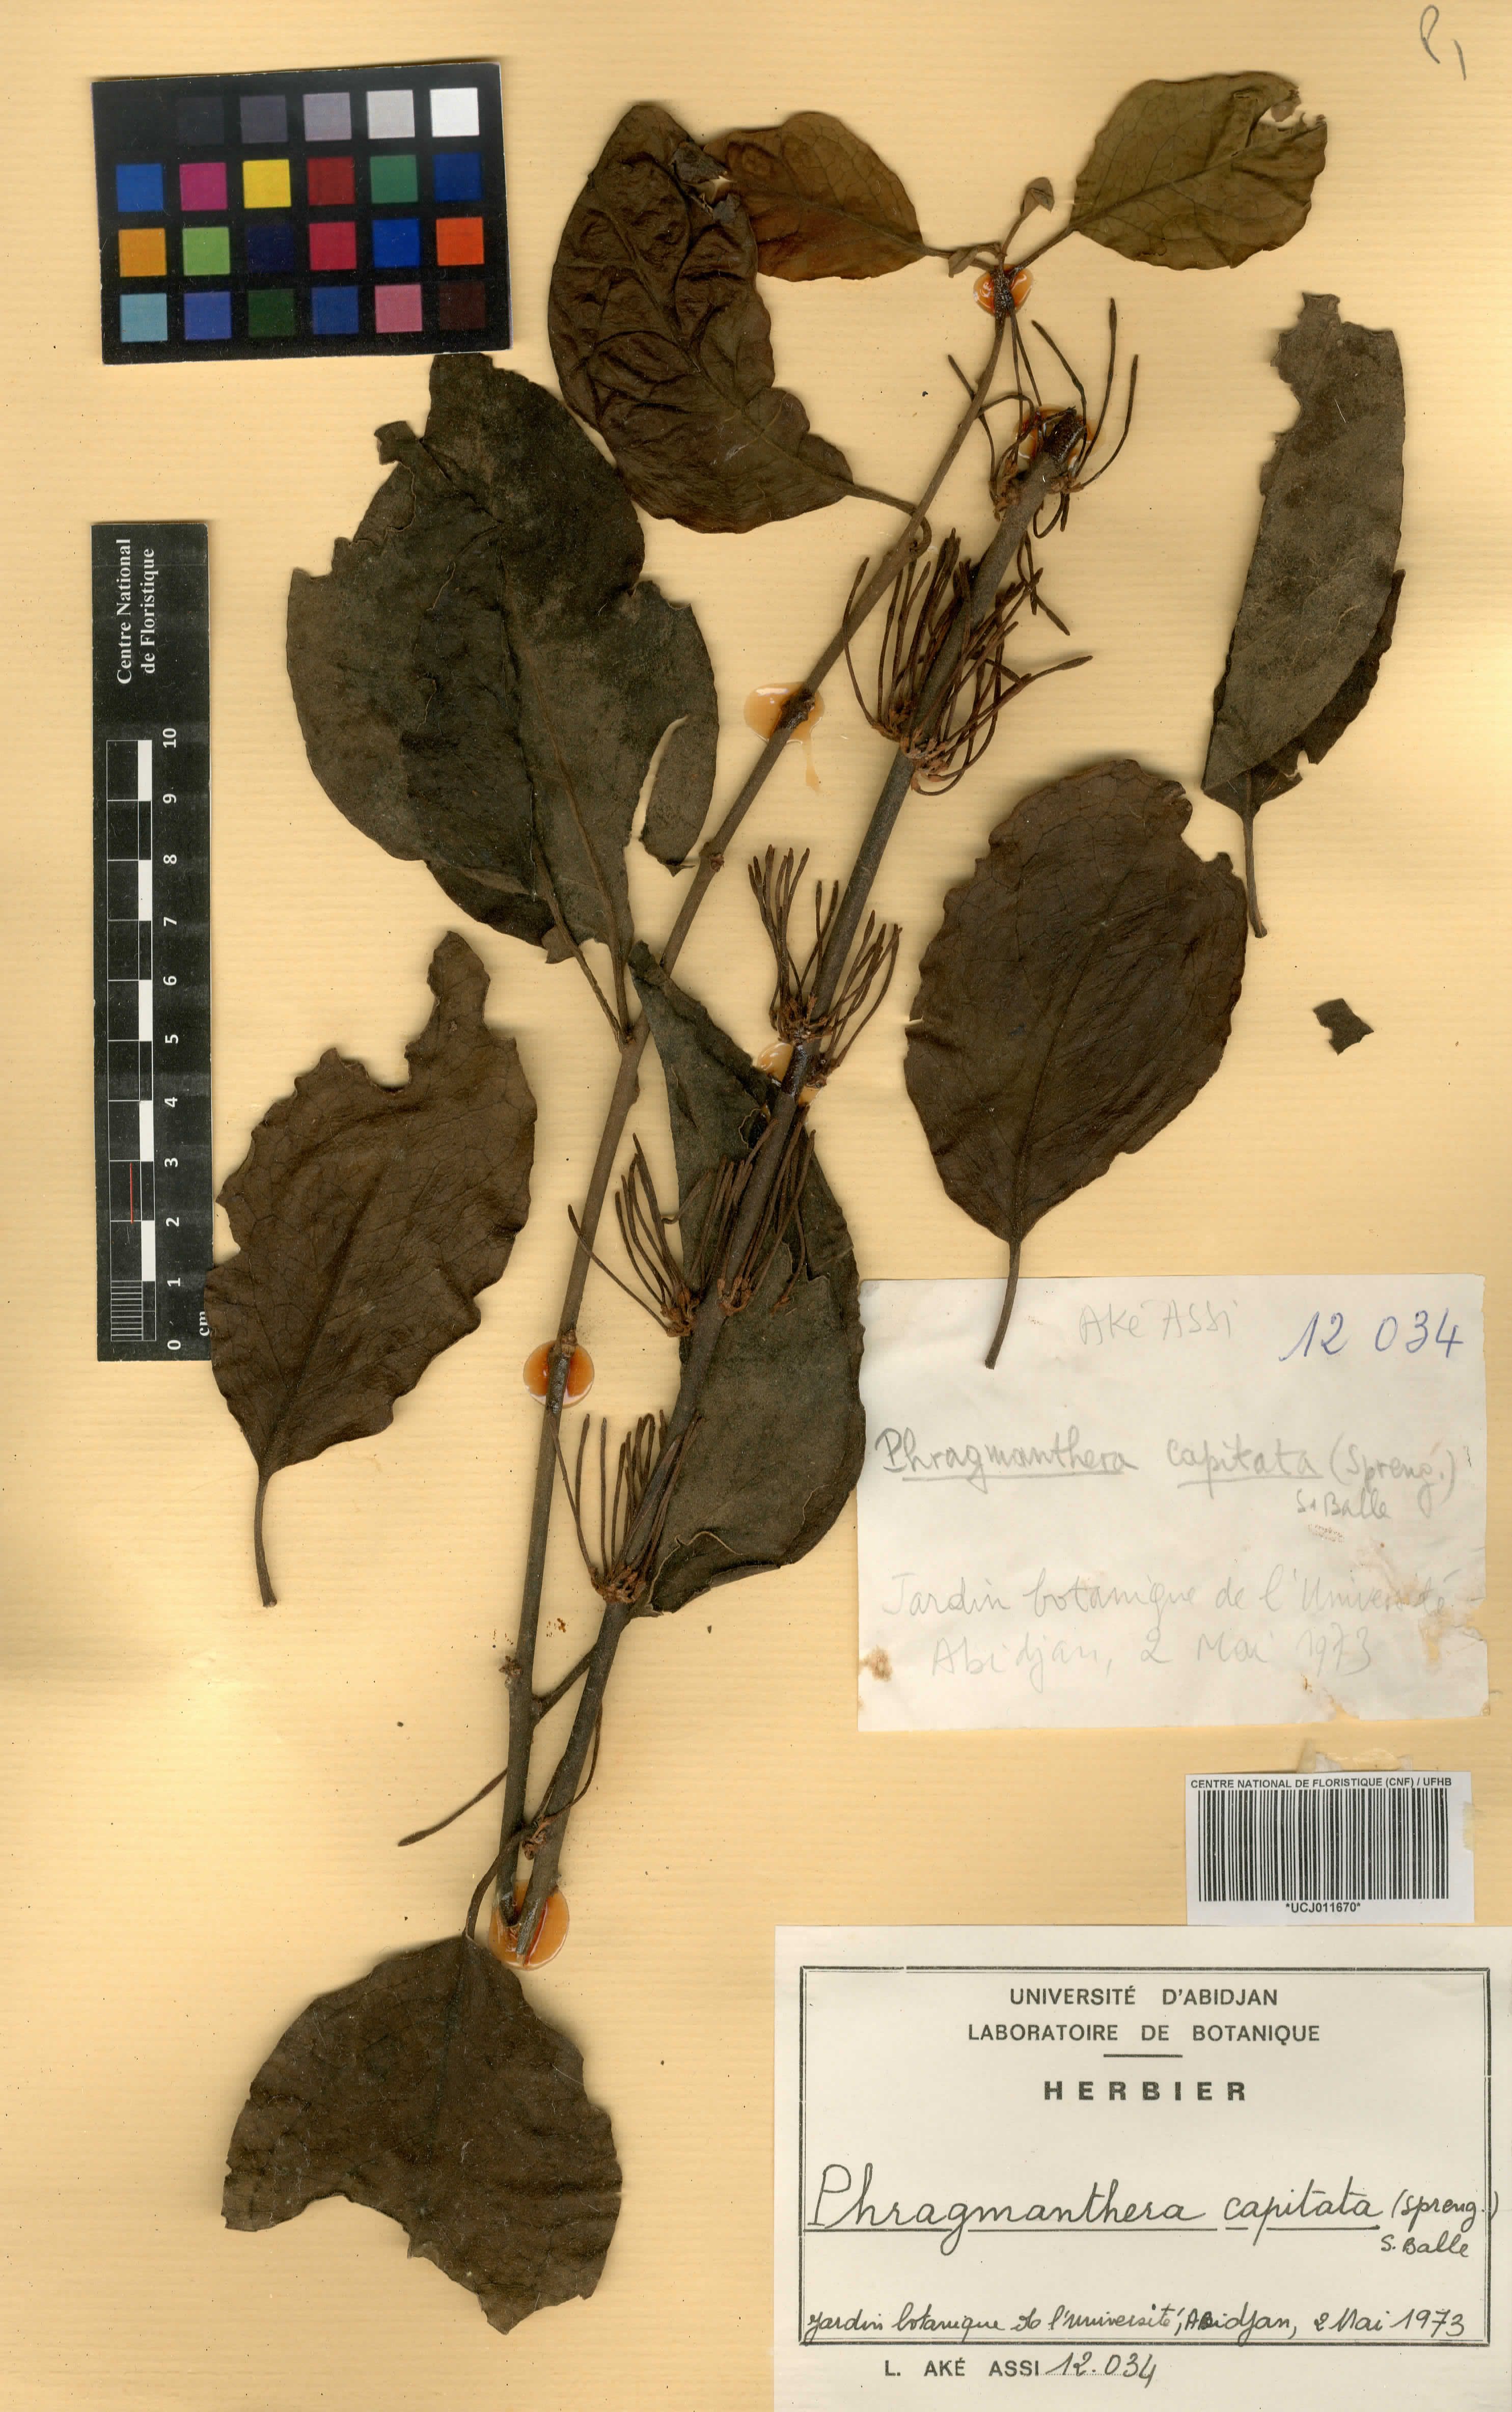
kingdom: Plantae
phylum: Tracheophyta
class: Magnoliopsida
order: Santalales
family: Loranthaceae
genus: Phragmanthera
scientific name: Phragmanthera capitata
